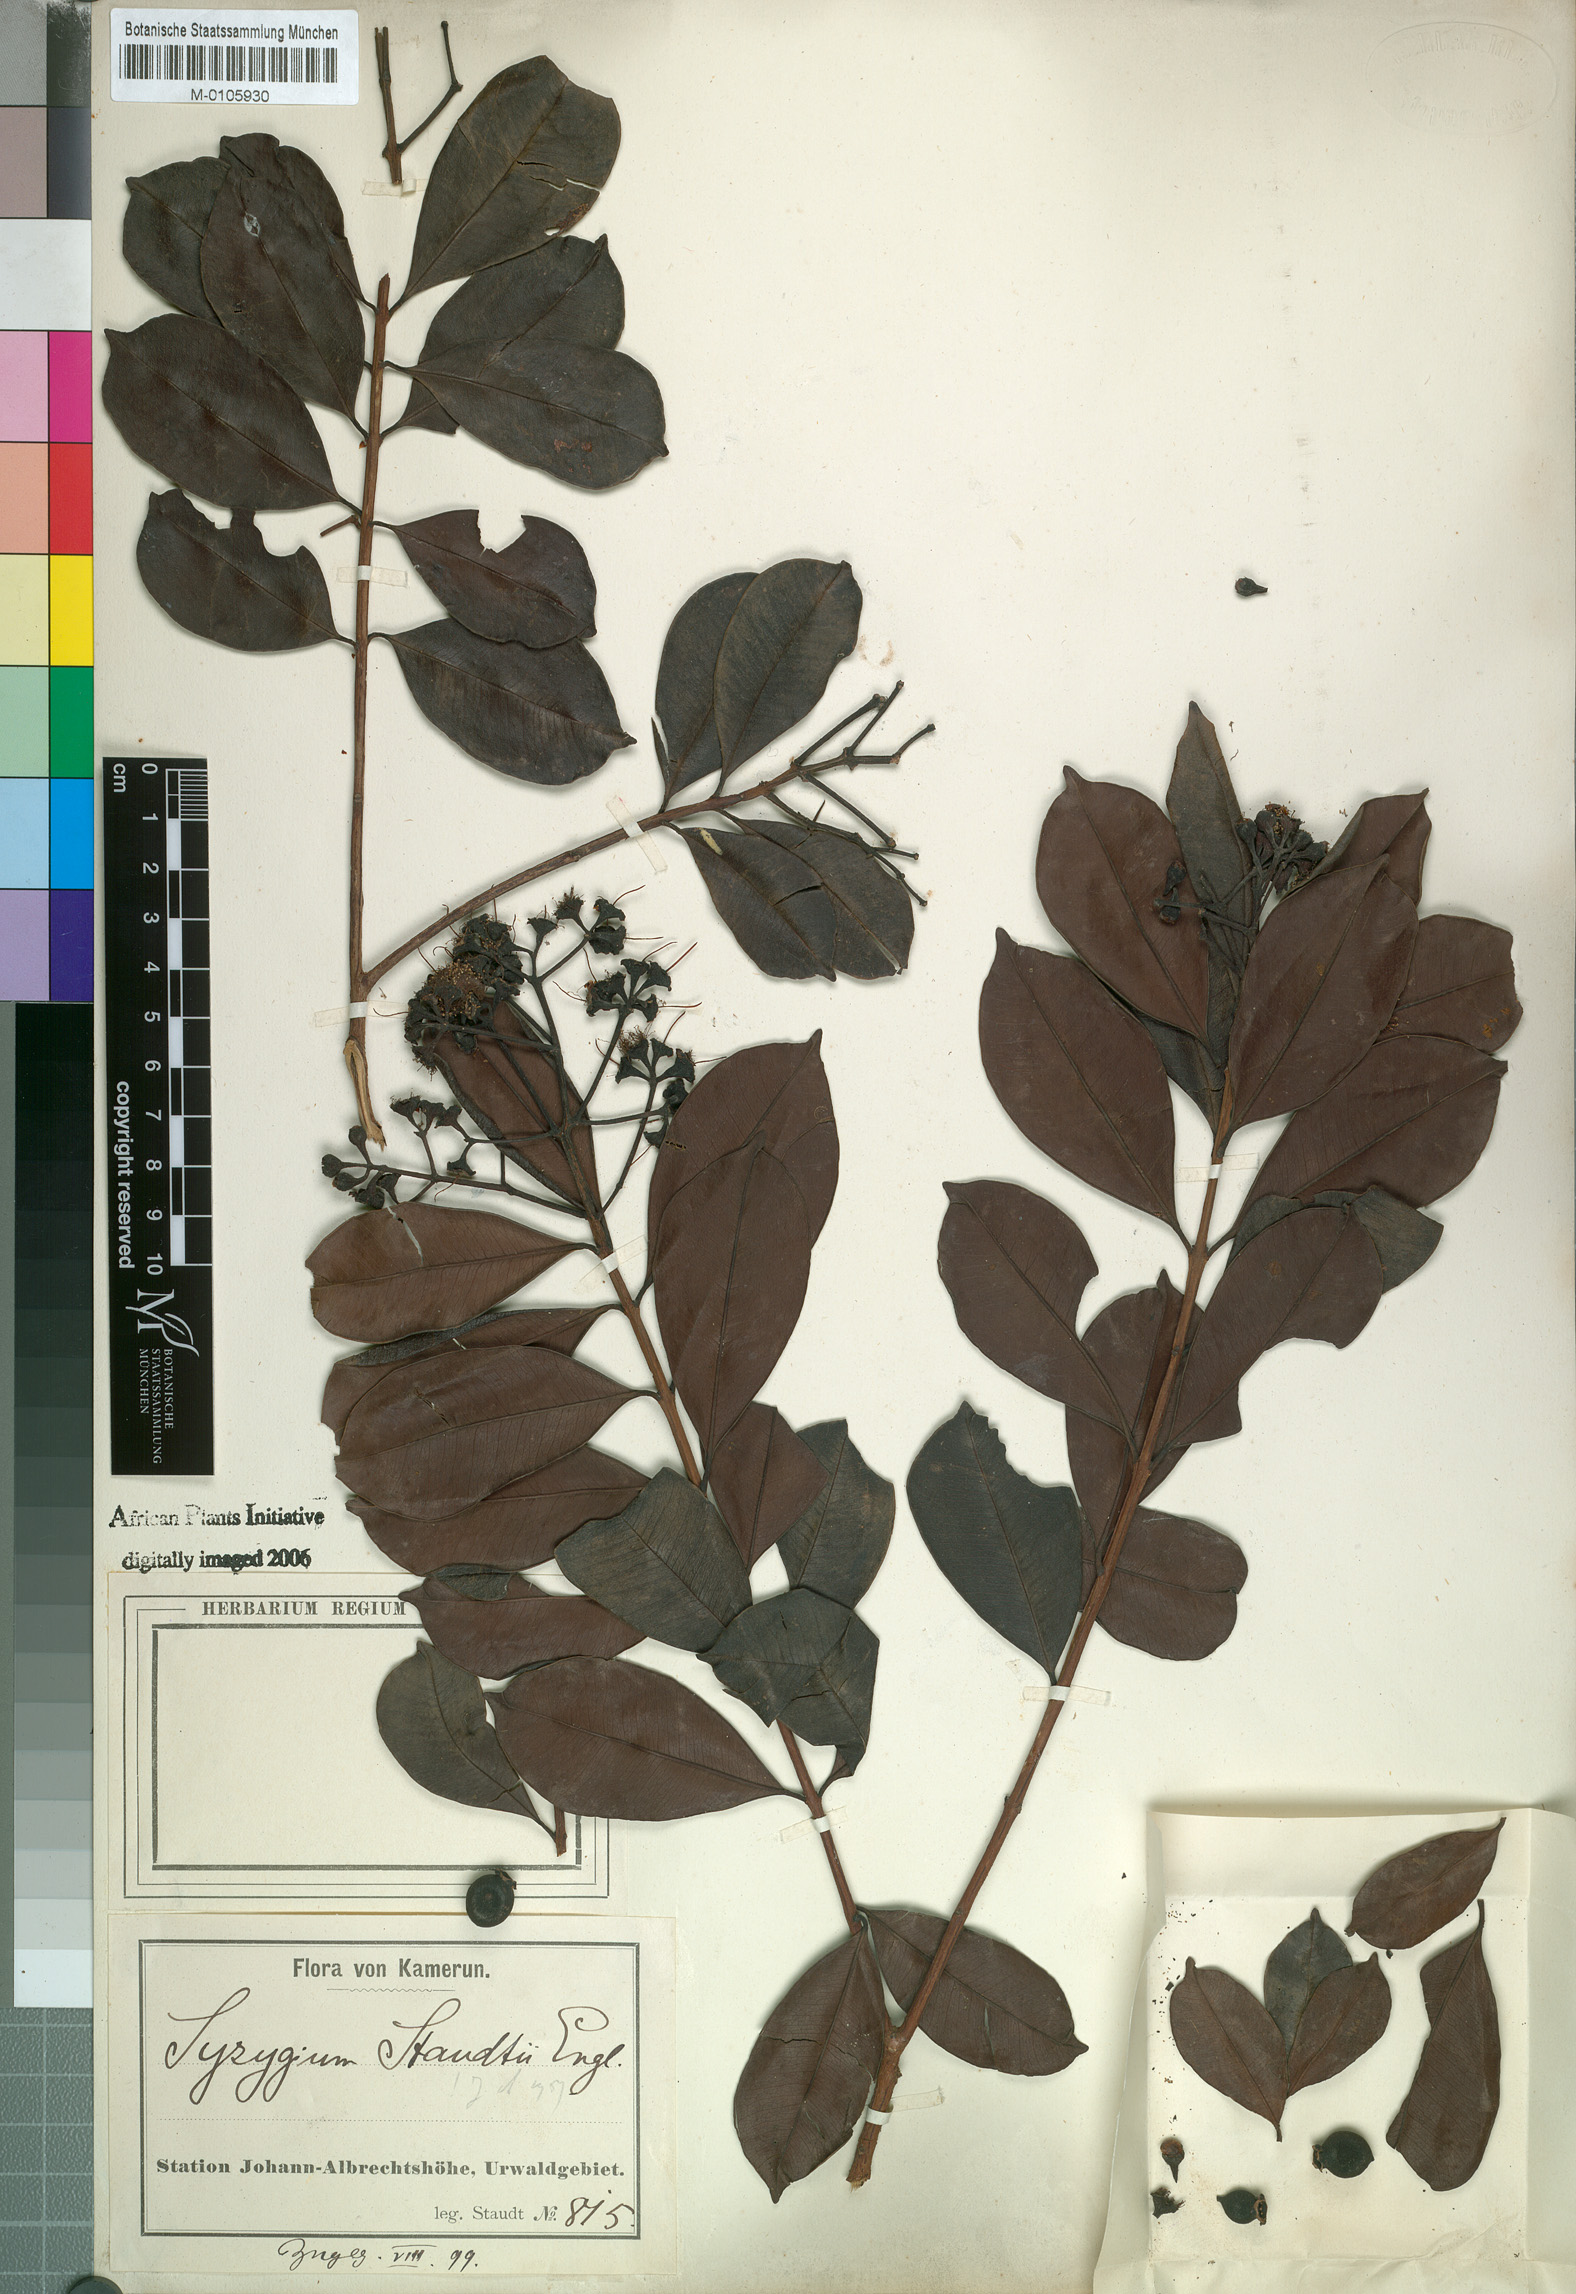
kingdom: Plantae
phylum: Tracheophyta
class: Magnoliopsida
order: Myrtales
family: Myrtaceae
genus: Syzygium
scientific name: Syzygium staudtii
